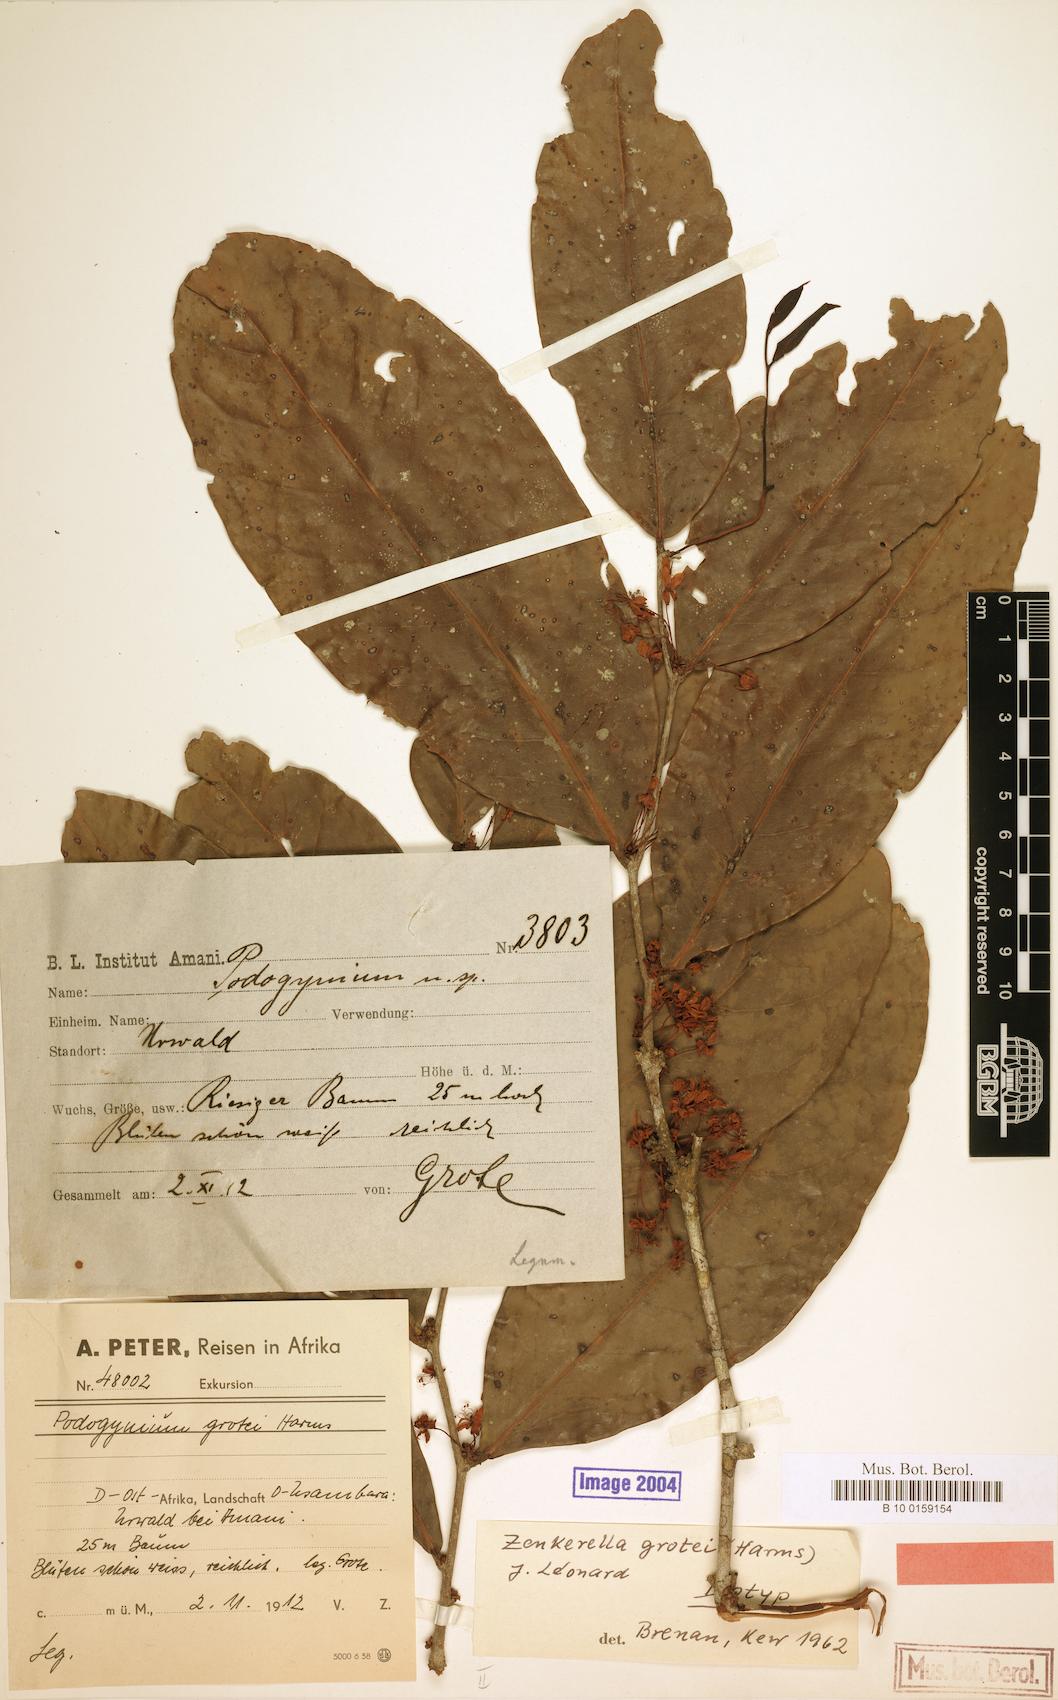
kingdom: Plantae
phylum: Tracheophyta
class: Magnoliopsida
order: Fabales
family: Fabaceae
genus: Zenkerella
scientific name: Zenkerella grotei
